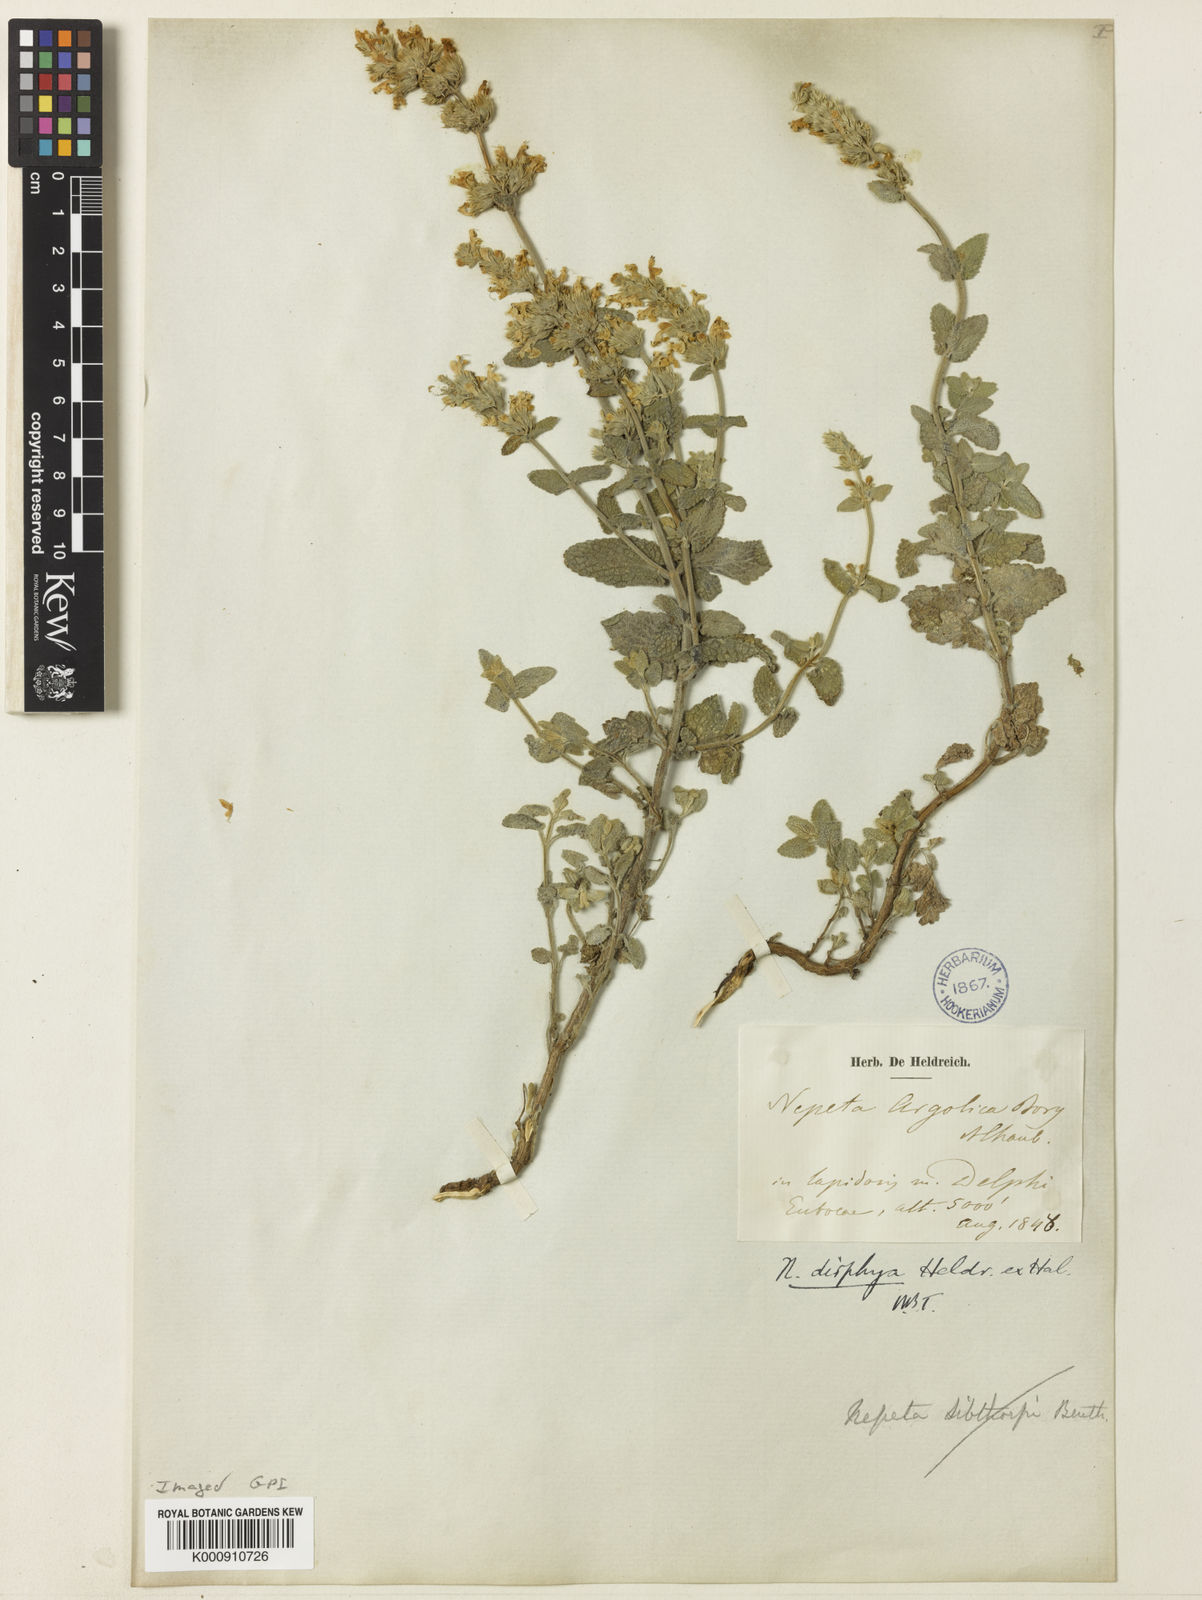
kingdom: Plantae
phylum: Tracheophyta
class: Magnoliopsida
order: Lamiales
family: Lamiaceae
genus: Nepeta
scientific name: Nepeta
